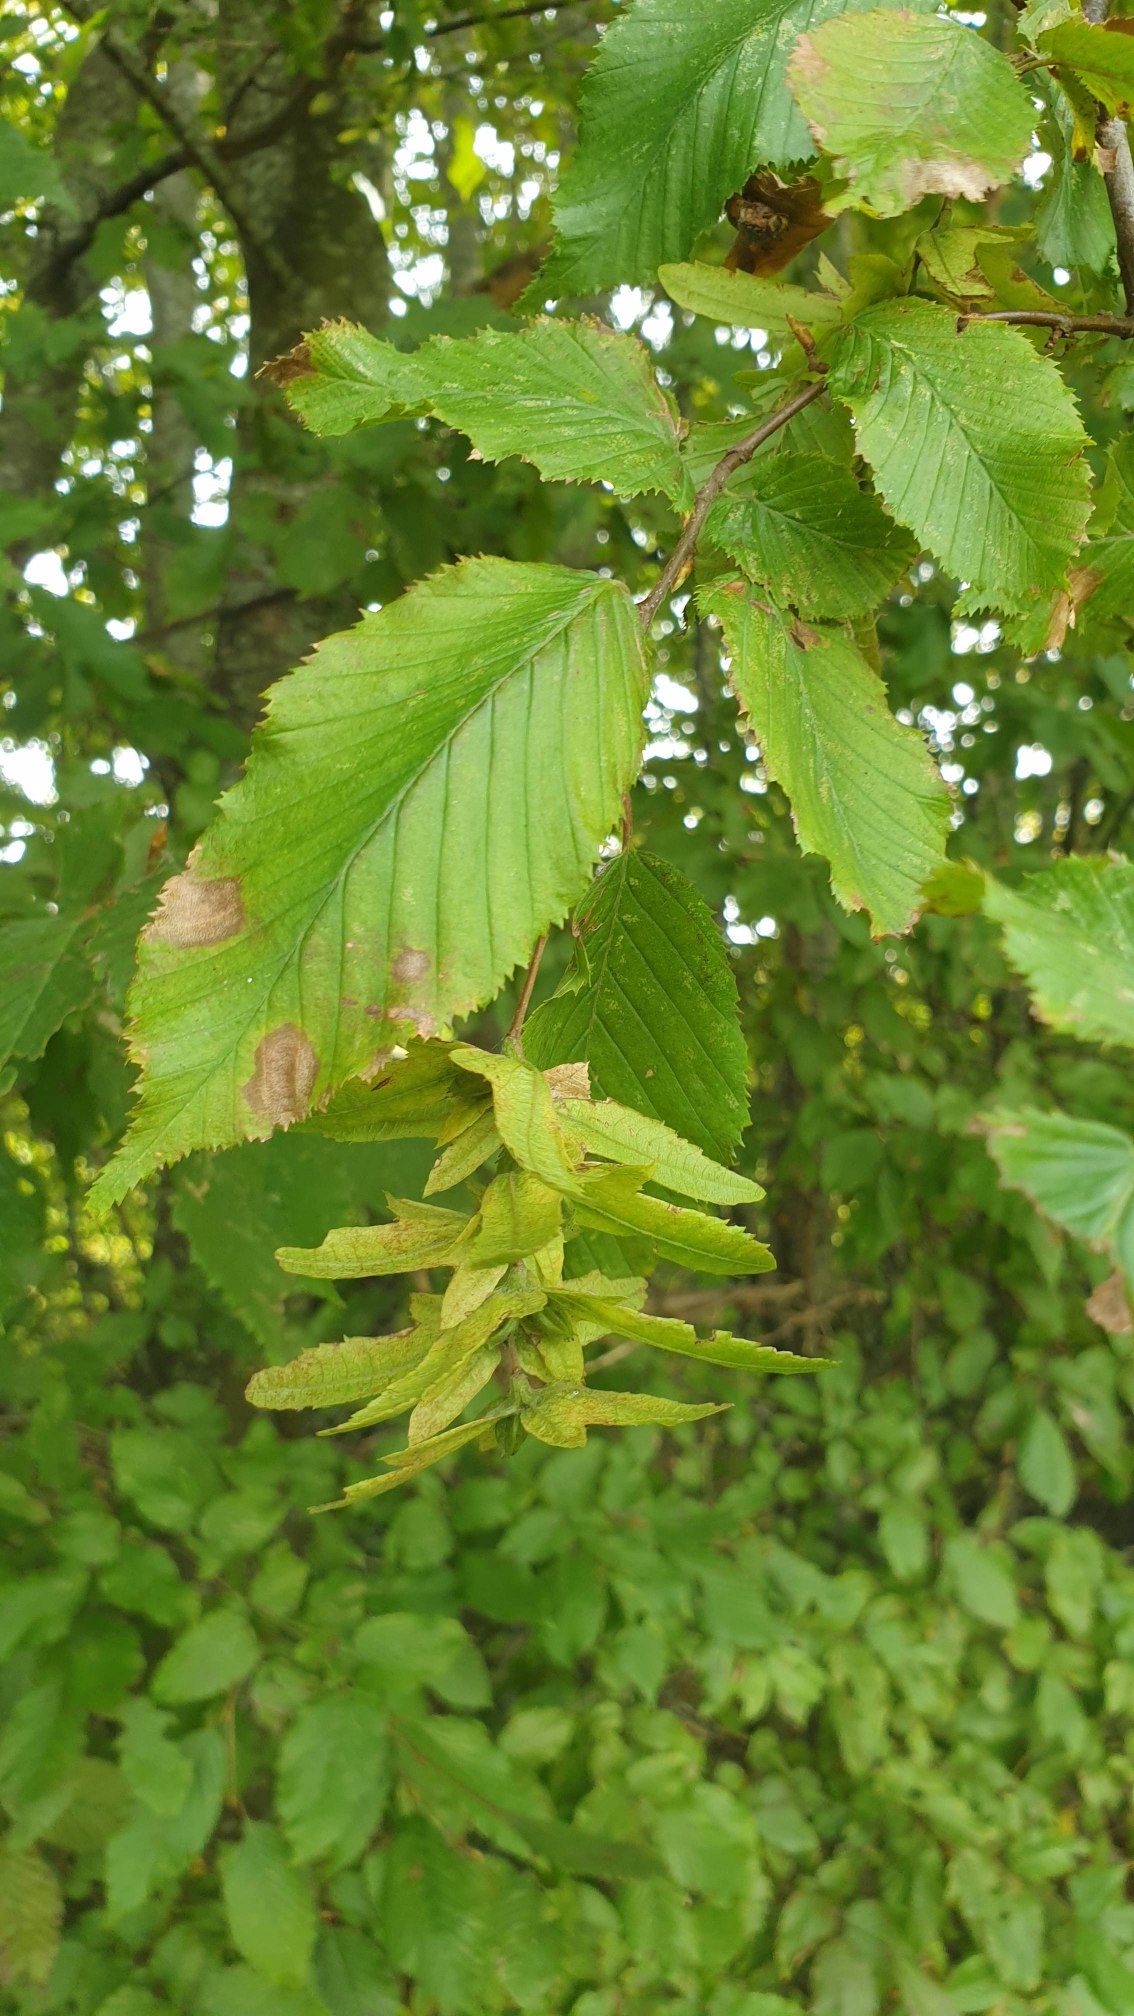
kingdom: Plantae
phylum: Tracheophyta
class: Magnoliopsida
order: Fagales
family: Betulaceae
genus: Carpinus
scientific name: Carpinus betulus
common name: Avnbøg
